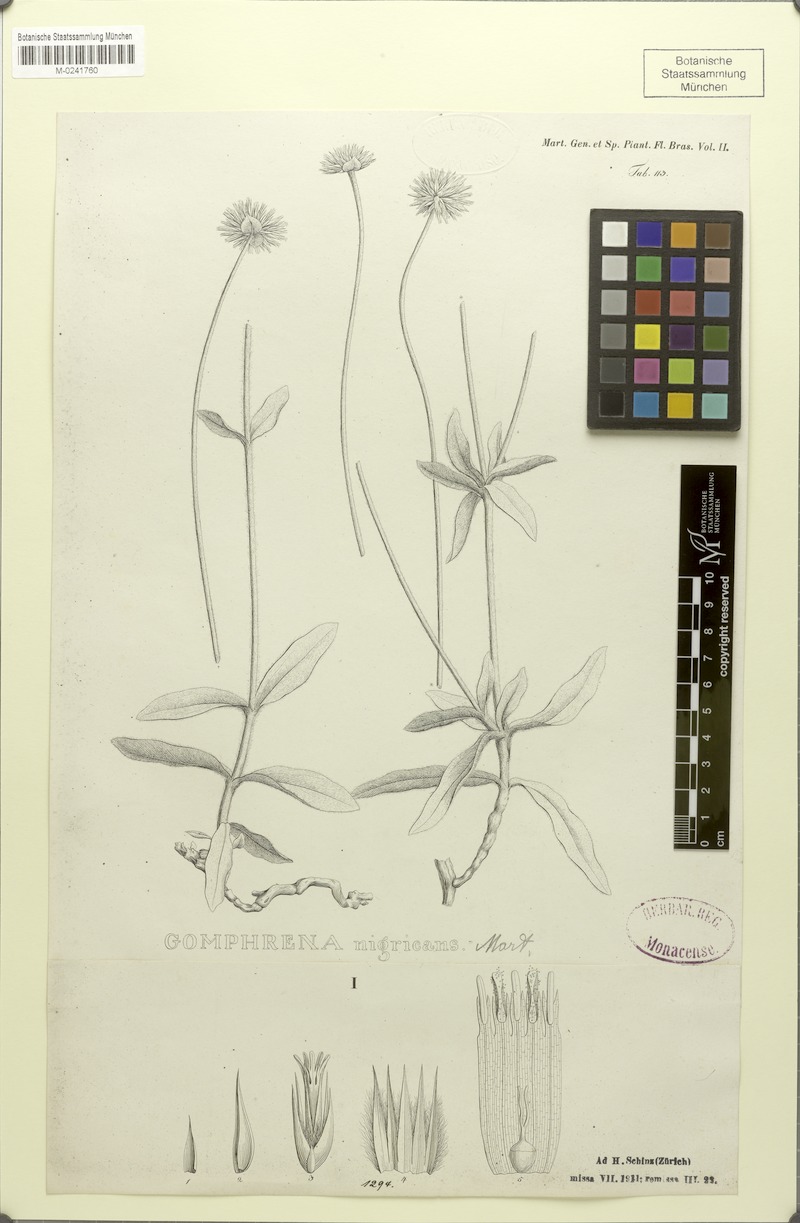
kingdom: Plantae
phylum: Tracheophyta
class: Magnoliopsida
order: Caryophyllales
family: Amaranthaceae
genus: Gomphrena
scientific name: Gomphrena nigricans
